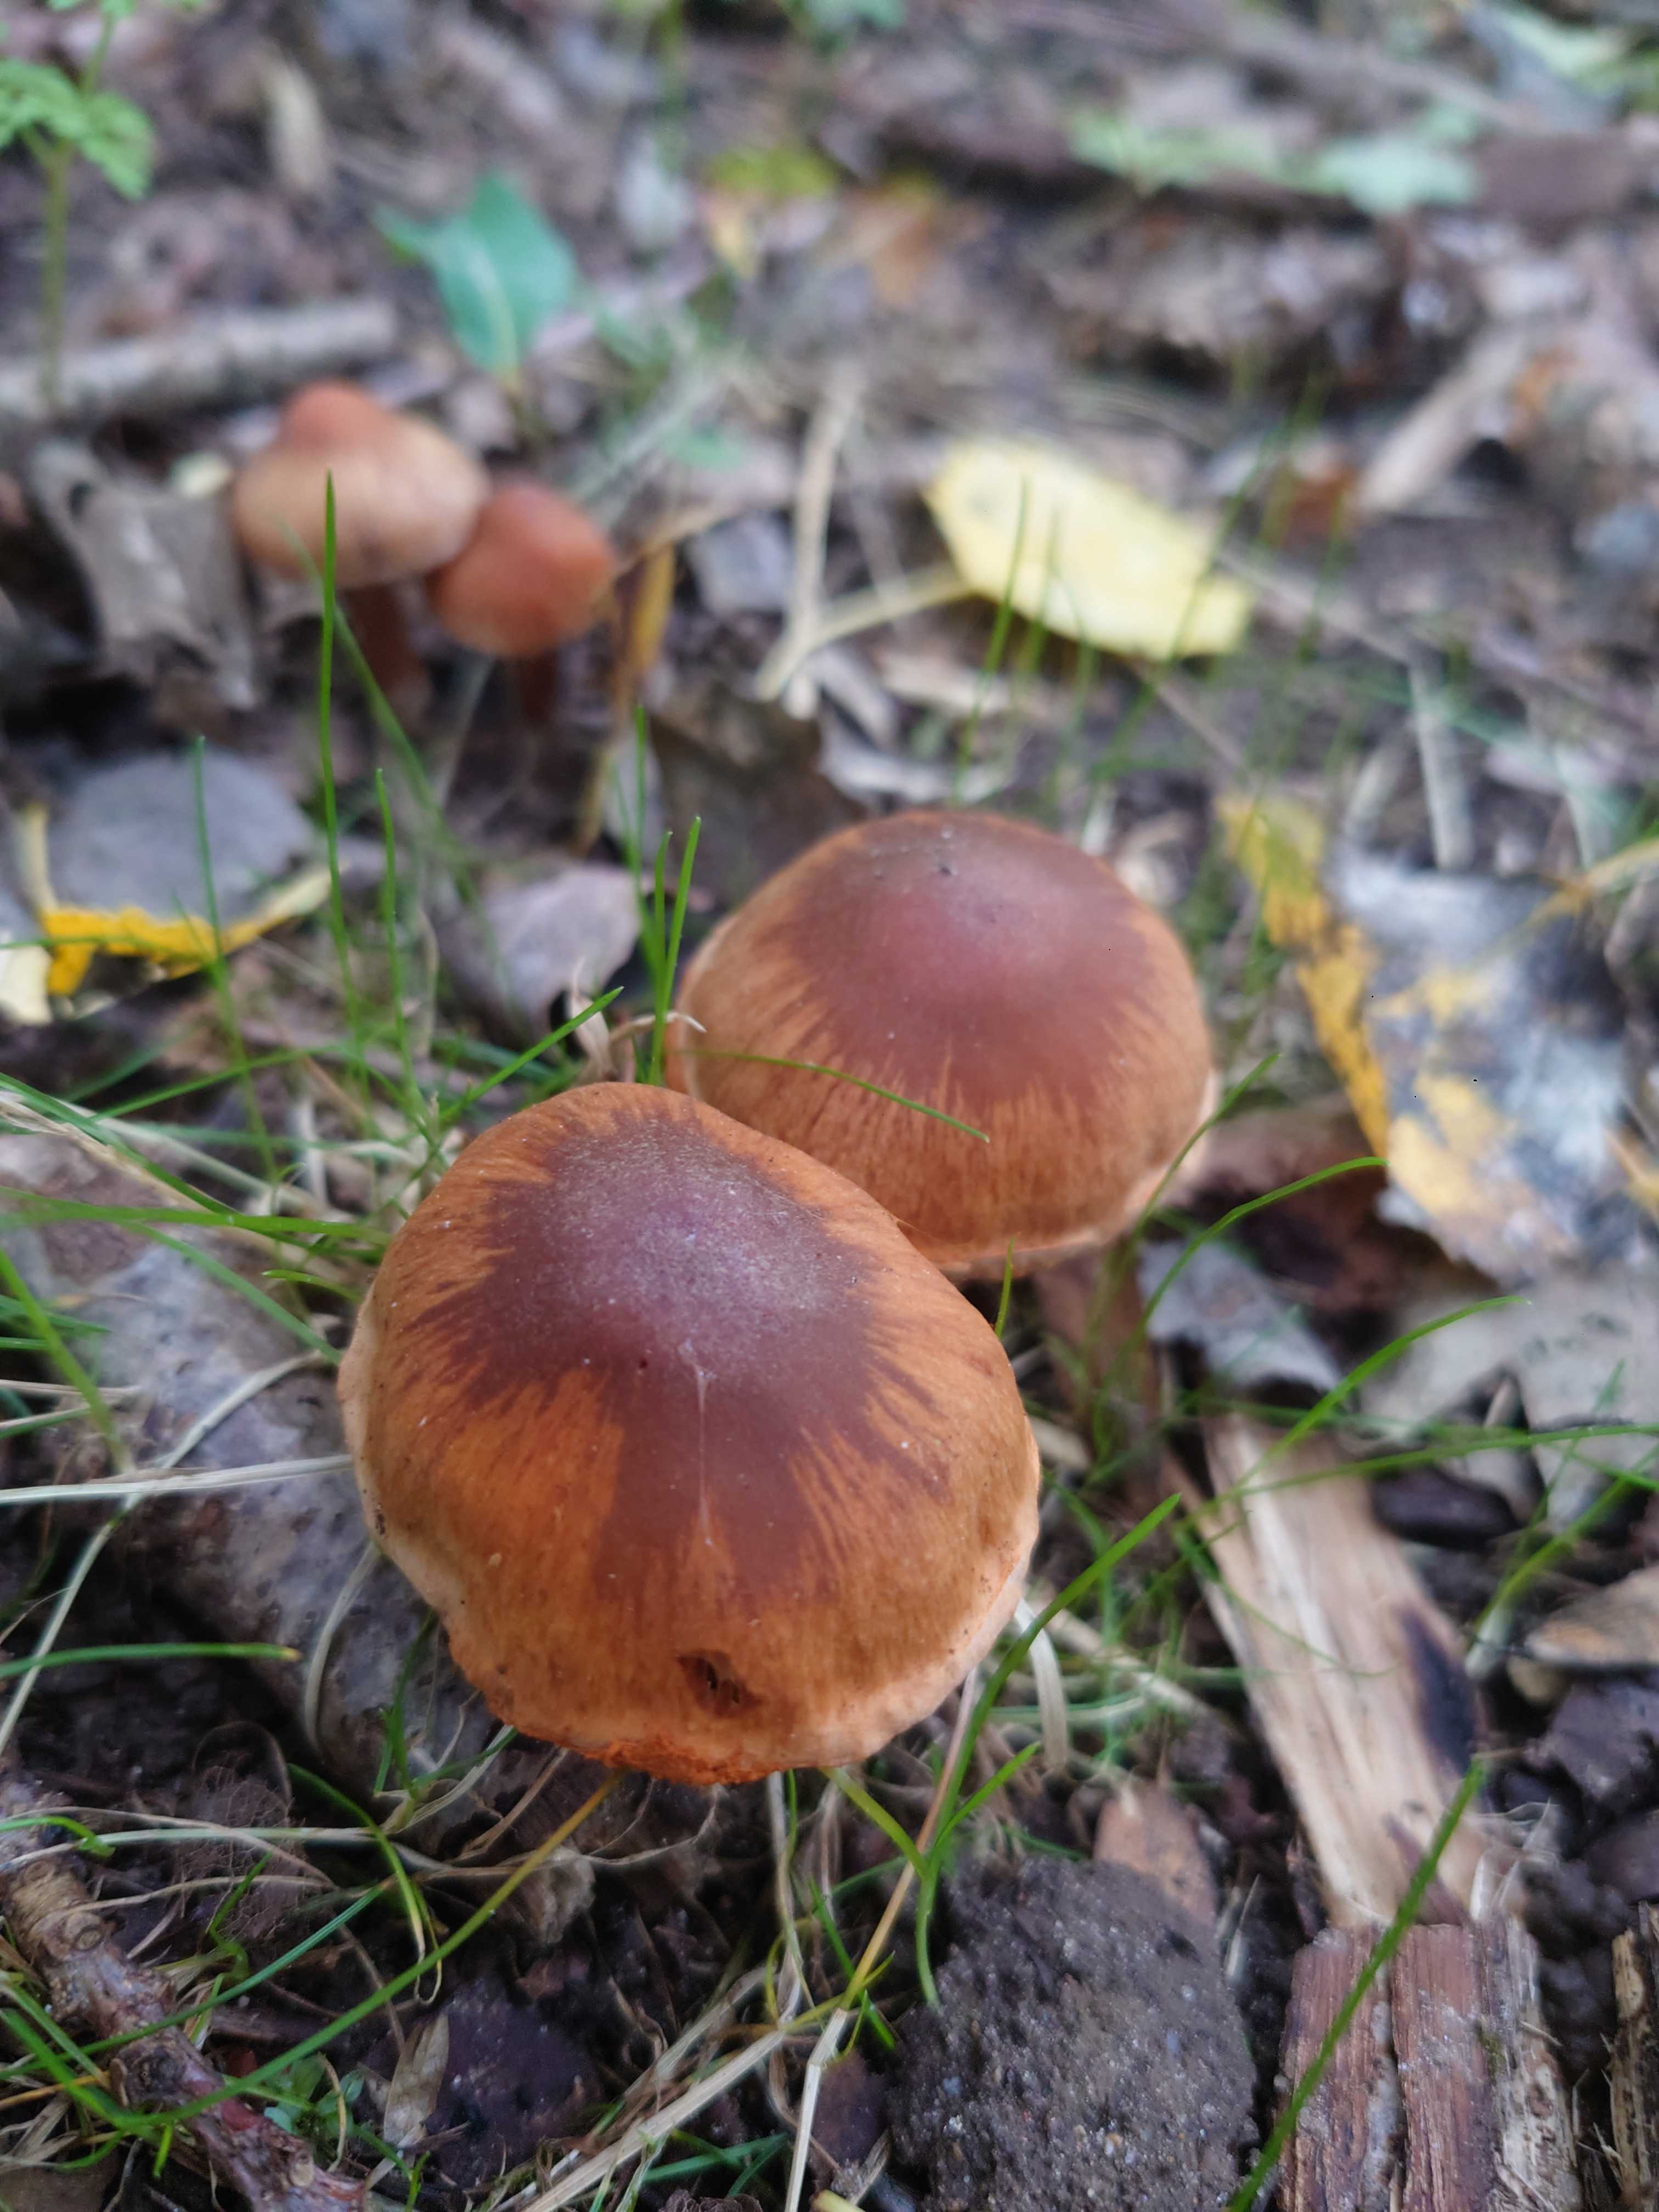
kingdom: Fungi
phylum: Basidiomycota
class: Agaricomycetes
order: Agaricales
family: Cortinariaceae
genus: Cortinarius
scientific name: Cortinarius
